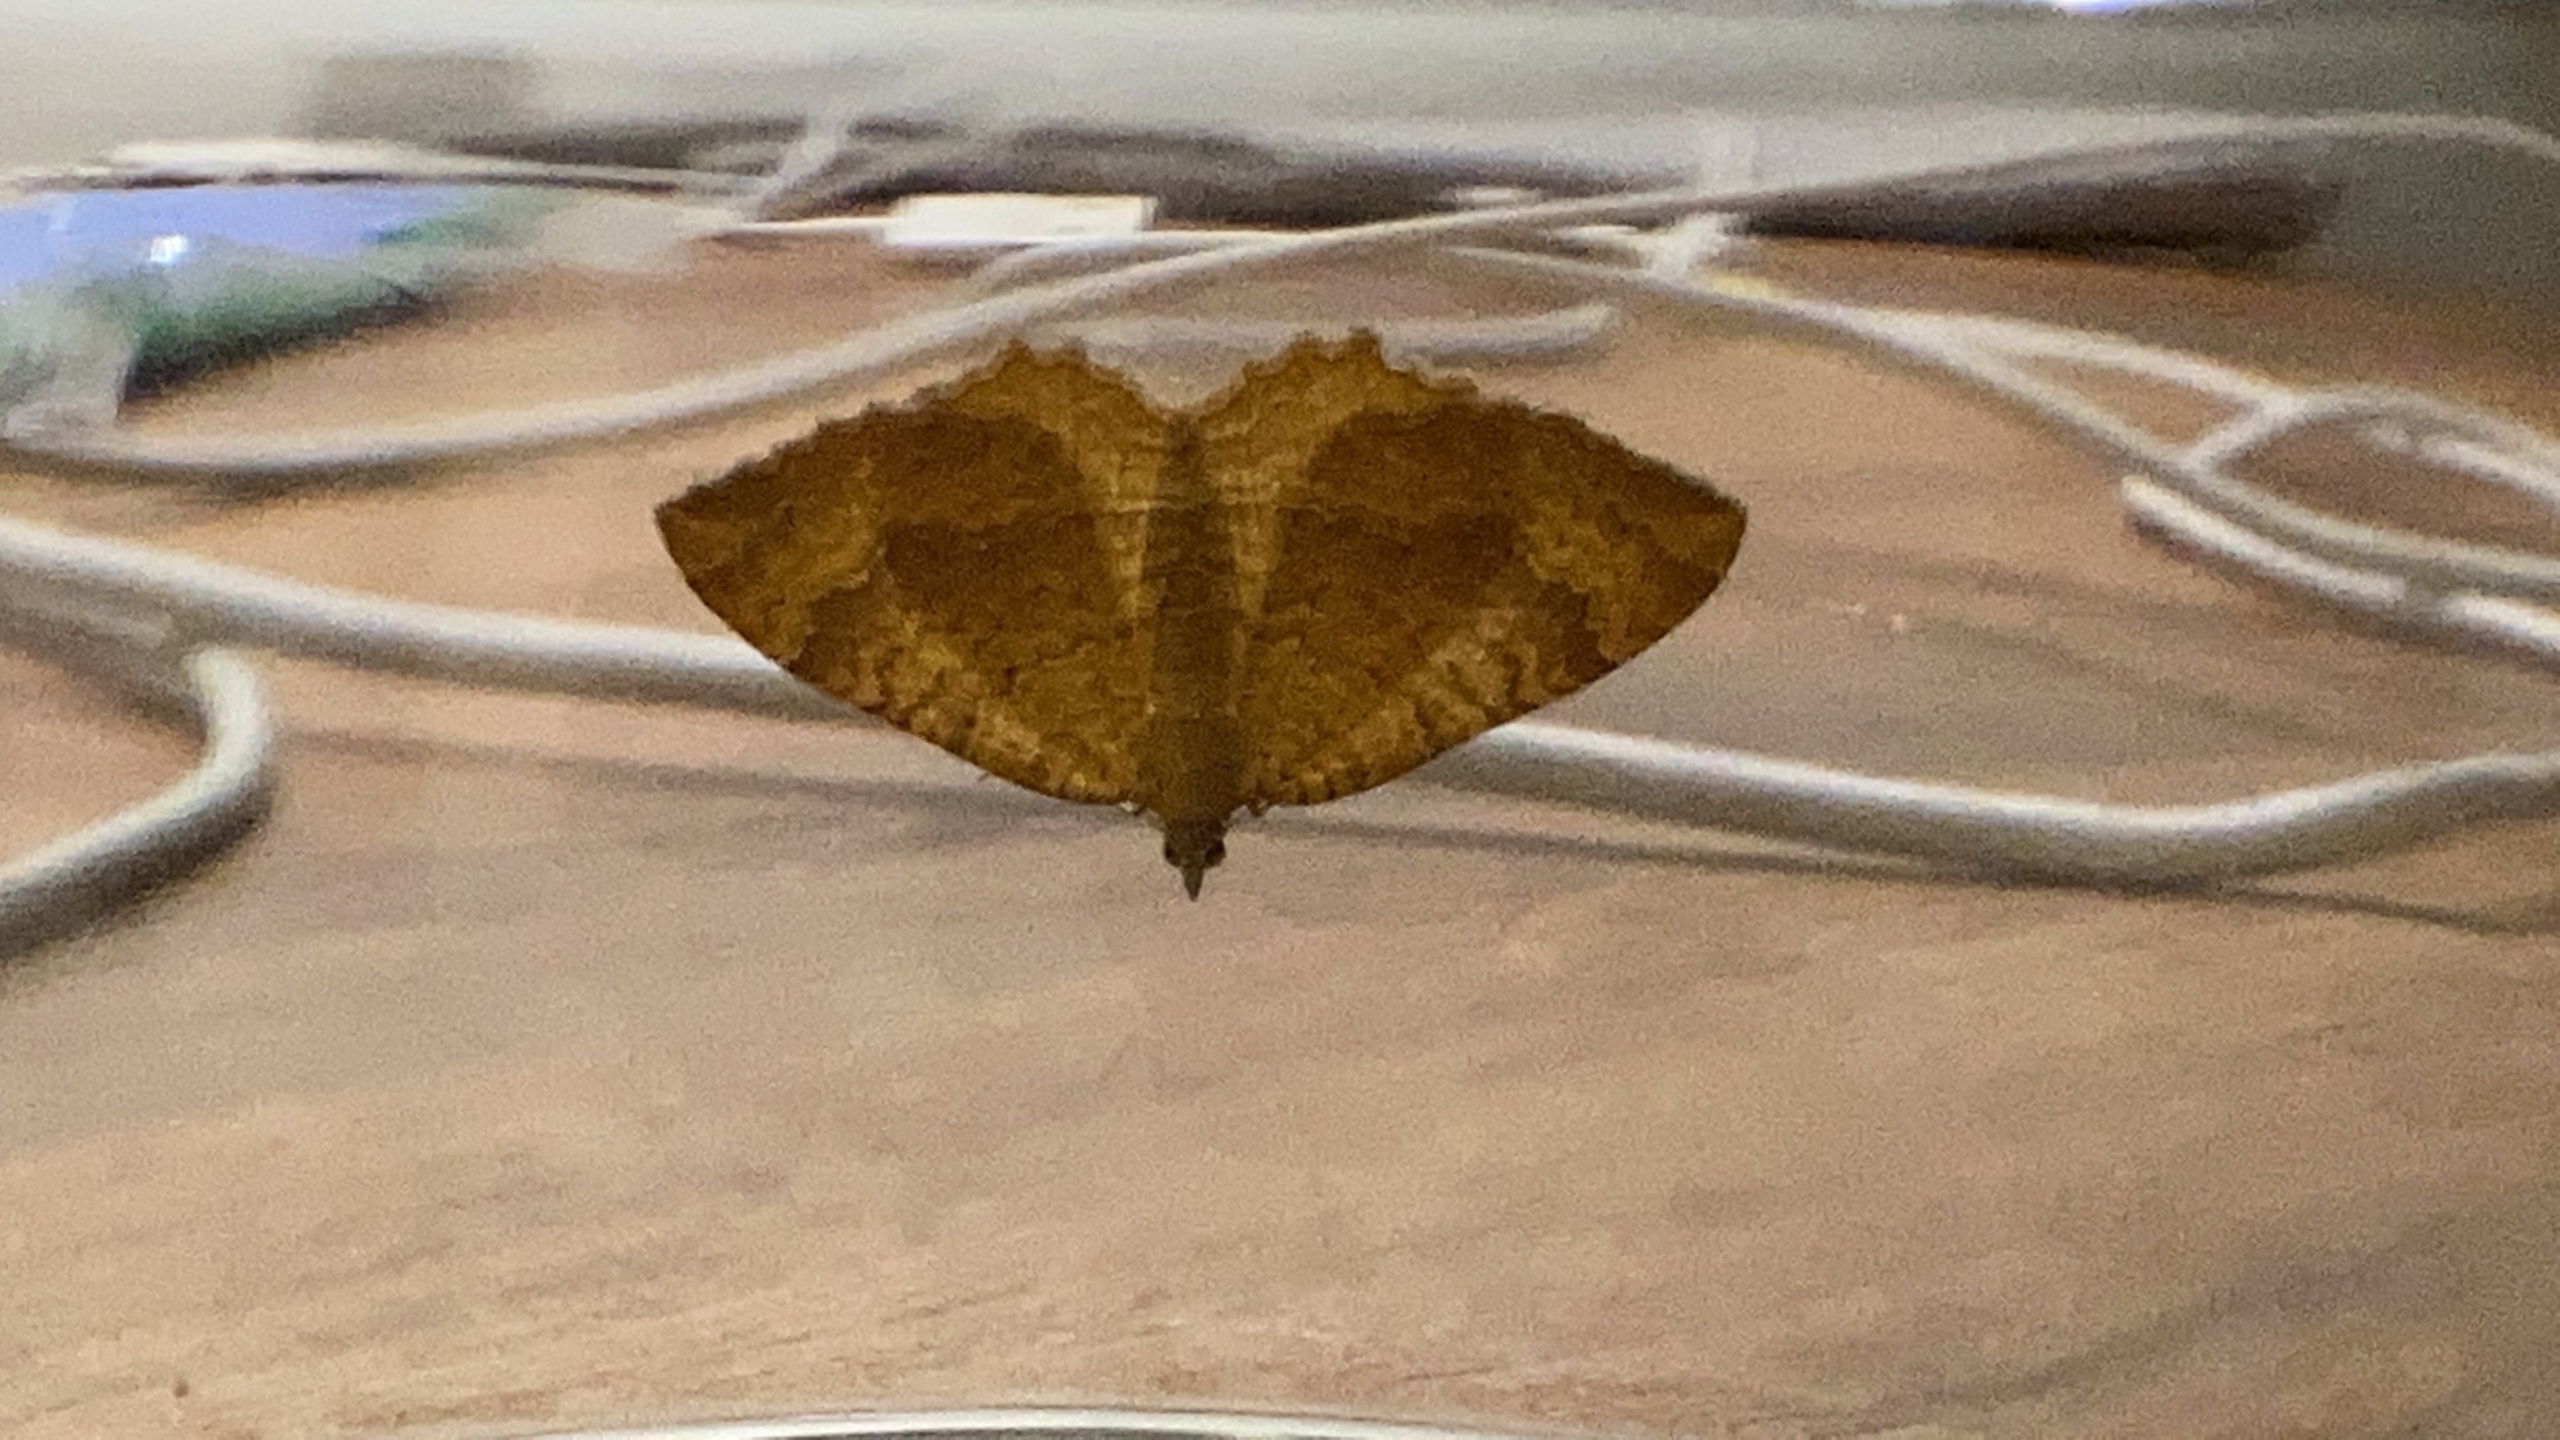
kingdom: Animalia
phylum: Arthropoda
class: Insecta
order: Lepidoptera
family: Geometridae
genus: Camptogramma
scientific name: Camptogramma bilineata
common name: Okkergul bladmåler
